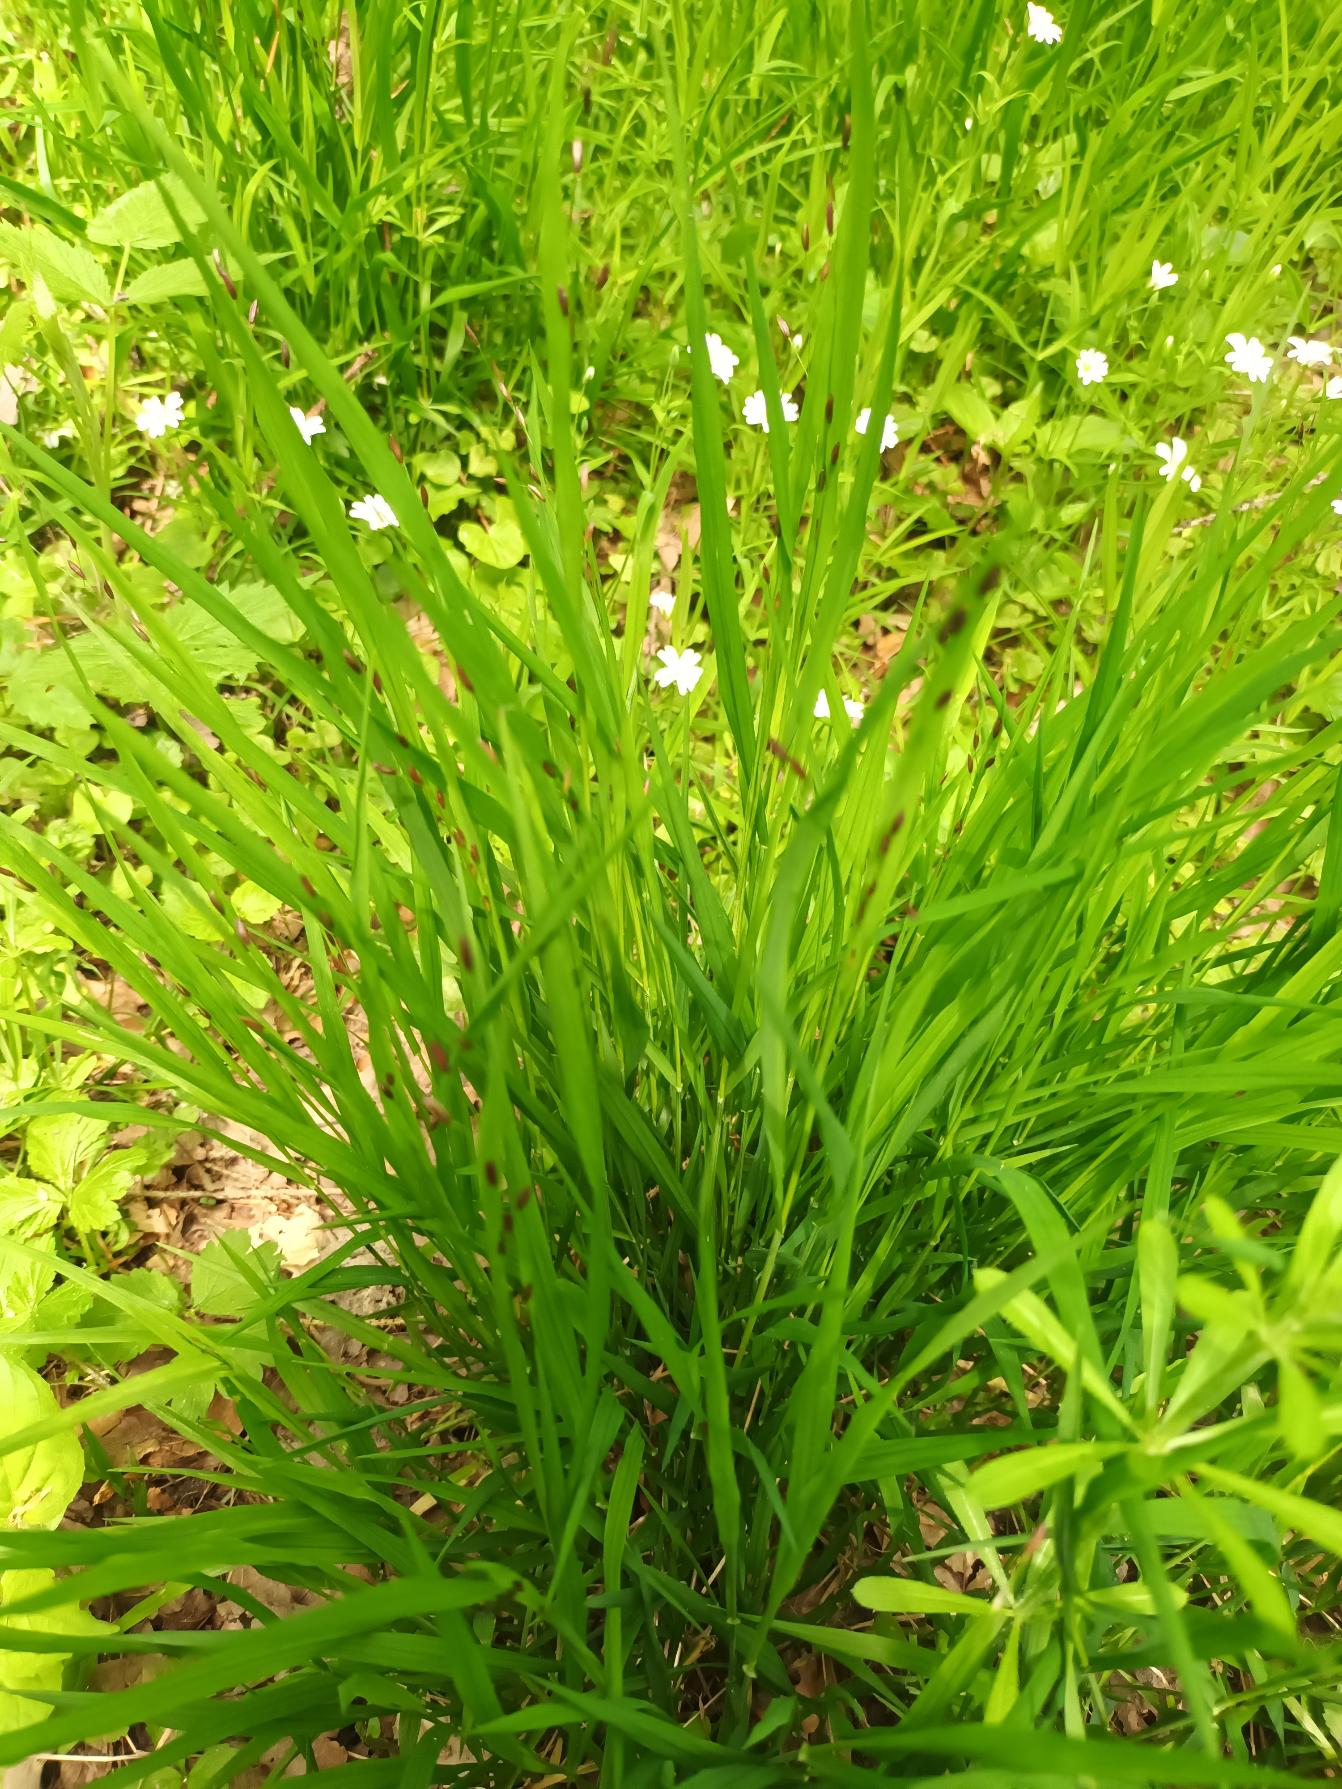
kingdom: Plantae
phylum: Tracheophyta
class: Liliopsida
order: Poales
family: Poaceae
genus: Melica
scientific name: Melica uniflora
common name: Enblomstret flitteraks
